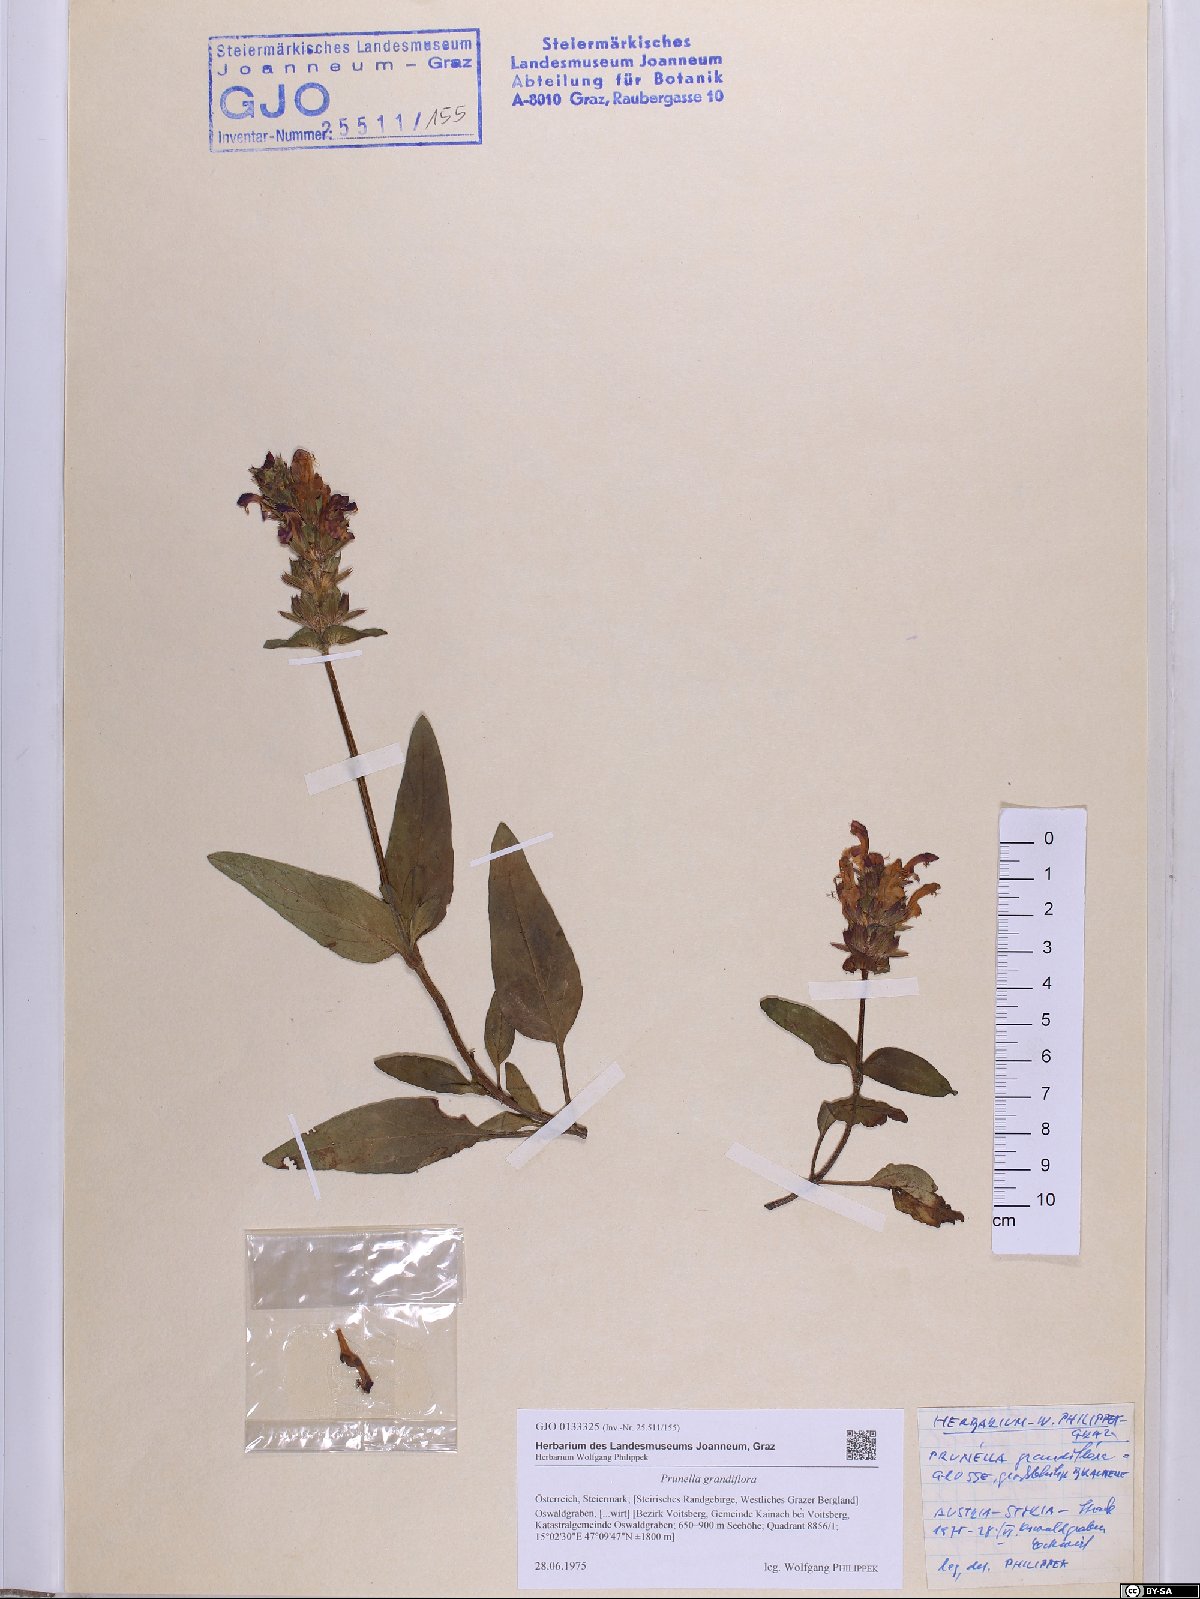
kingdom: Plantae
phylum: Tracheophyta
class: Magnoliopsida
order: Lamiales
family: Lamiaceae
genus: Prunella
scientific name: Prunella grandiflora
